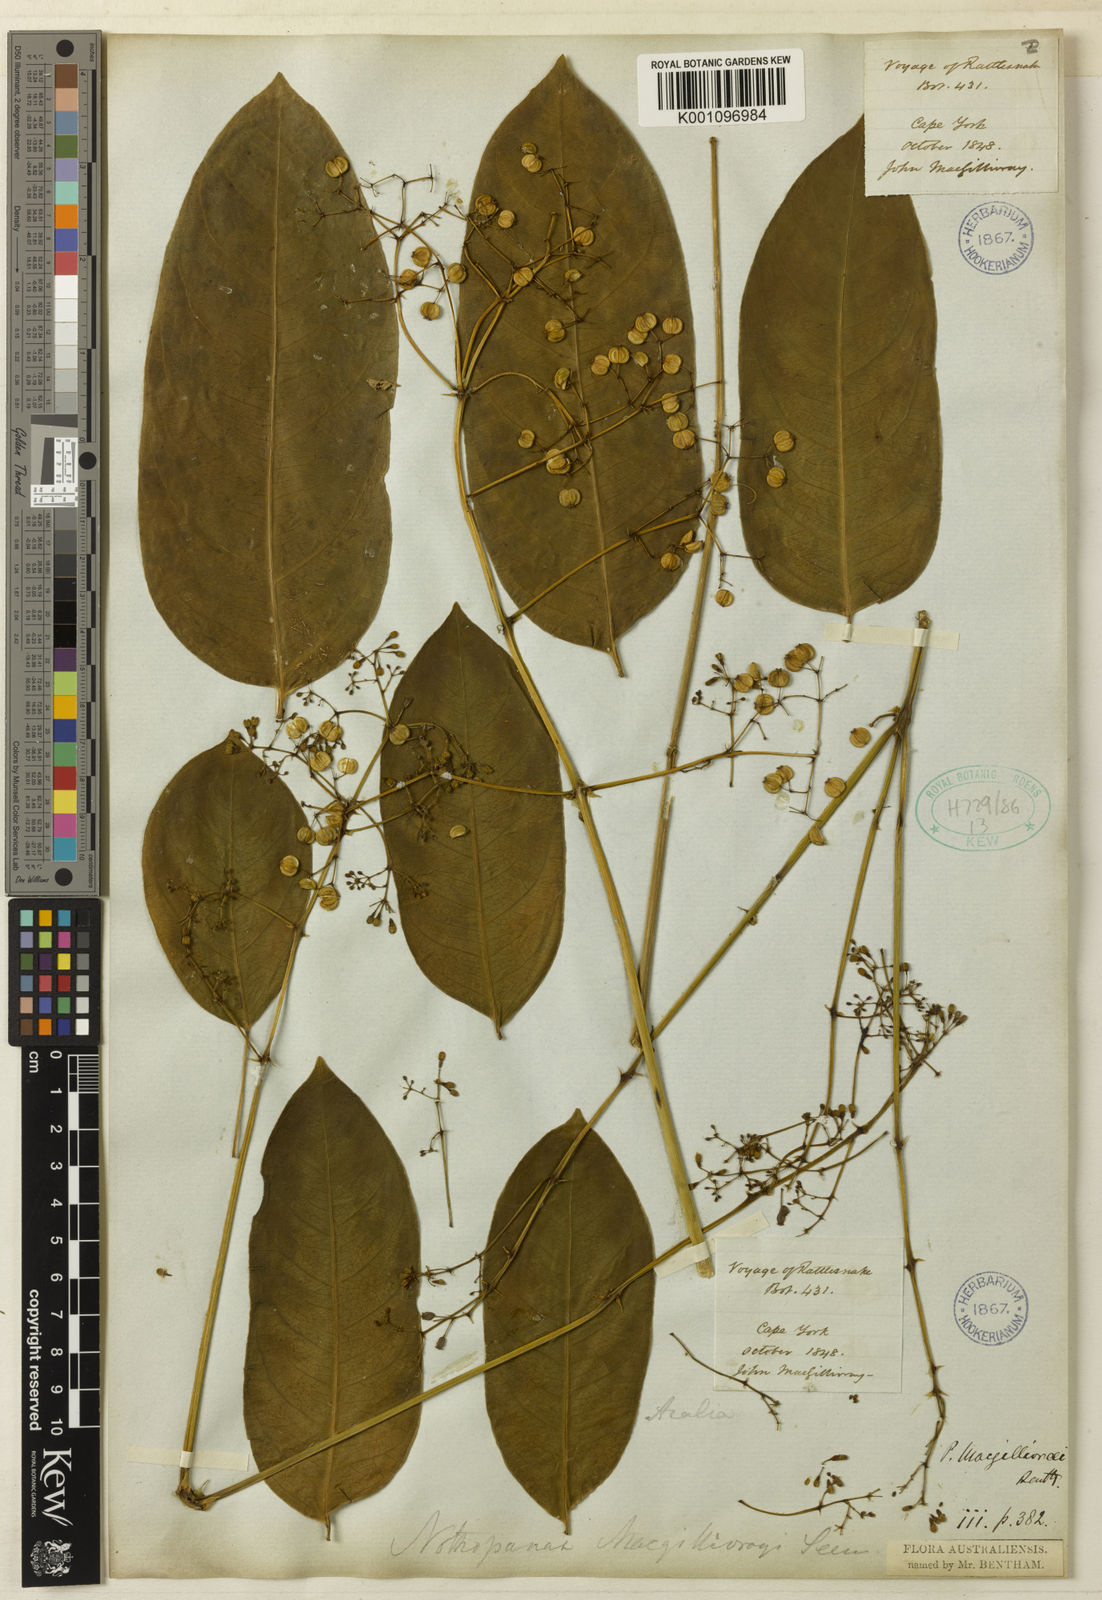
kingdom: Plantae
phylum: Tracheophyta
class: Magnoliopsida
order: Apiales
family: Araliaceae
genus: Polyscias
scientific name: Polyscias macgillivrayi
